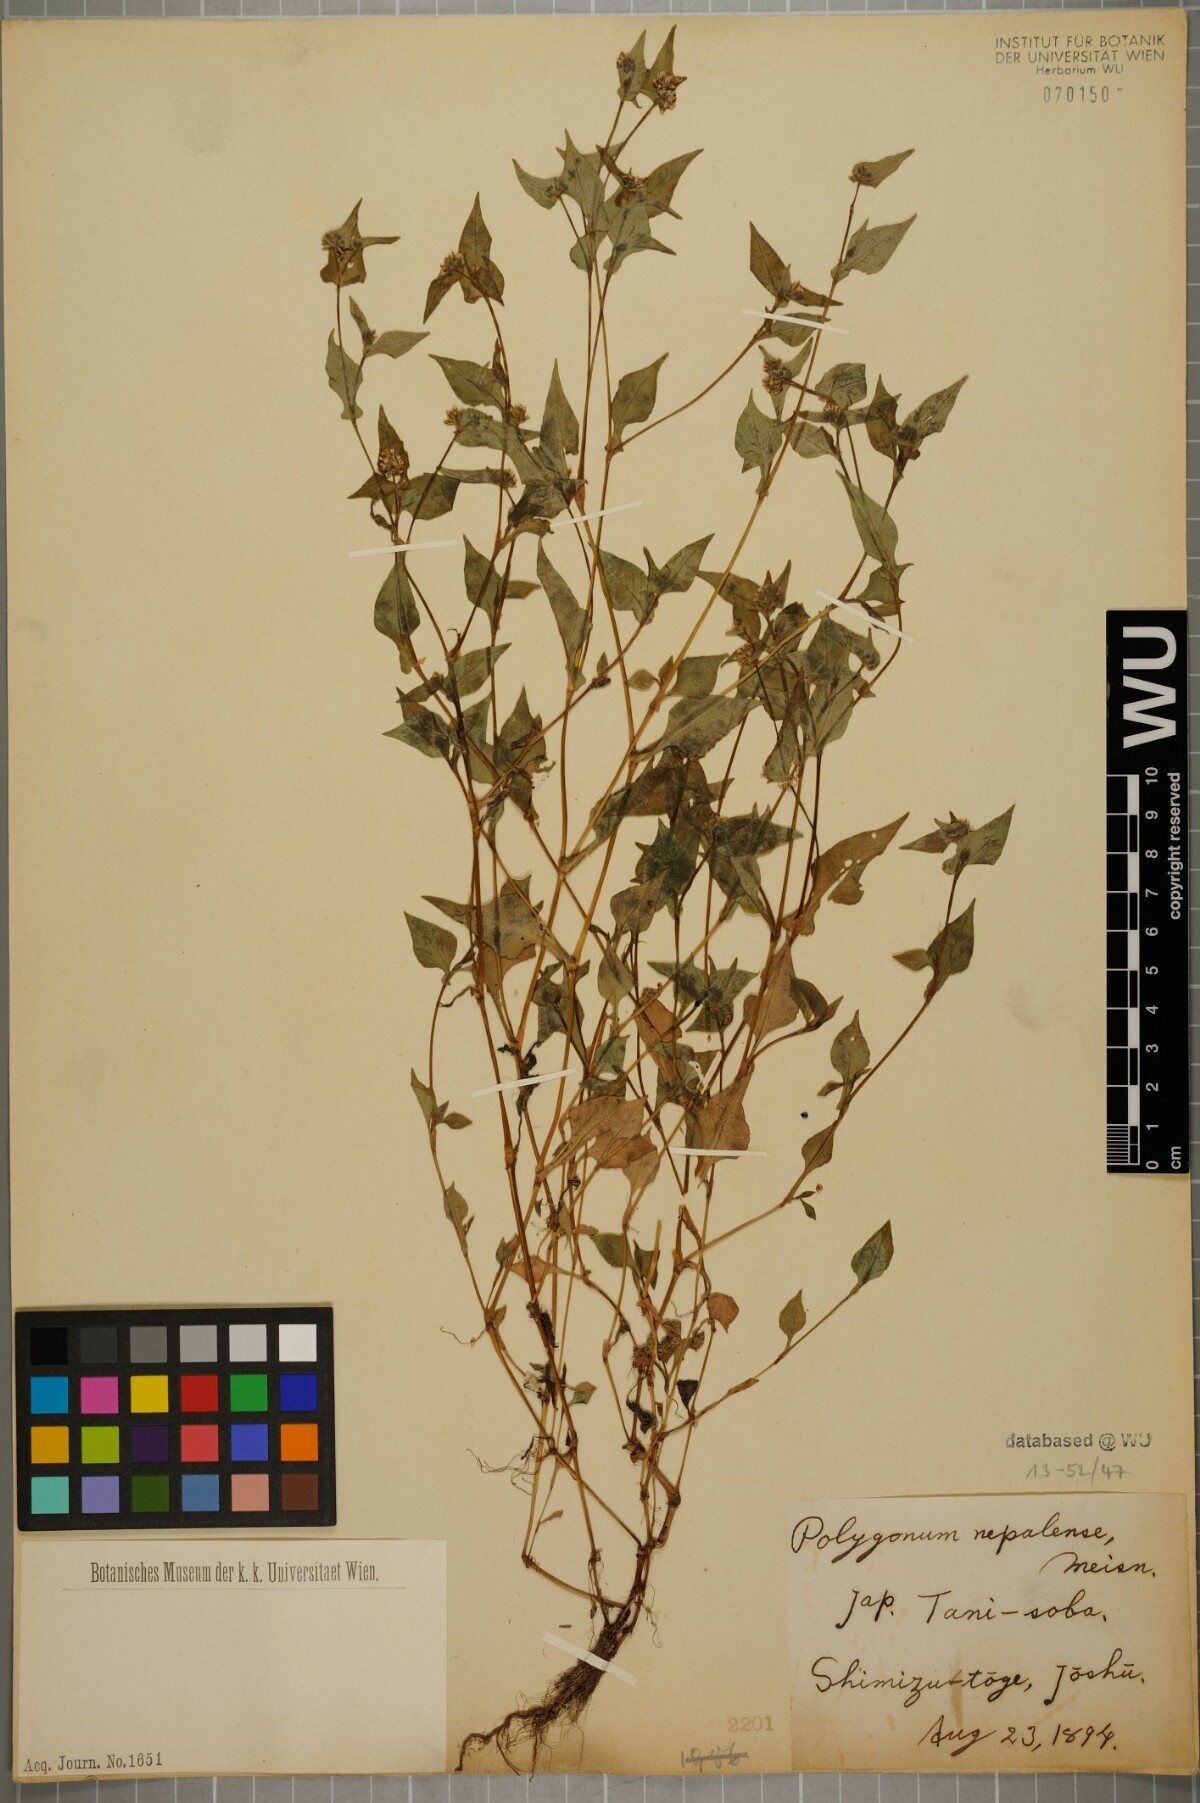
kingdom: Plantae
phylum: Tracheophyta
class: Magnoliopsida
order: Caryophyllales
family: Polygonaceae
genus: Persicaria
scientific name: Persicaria nepalensis
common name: Nepal persicaria
